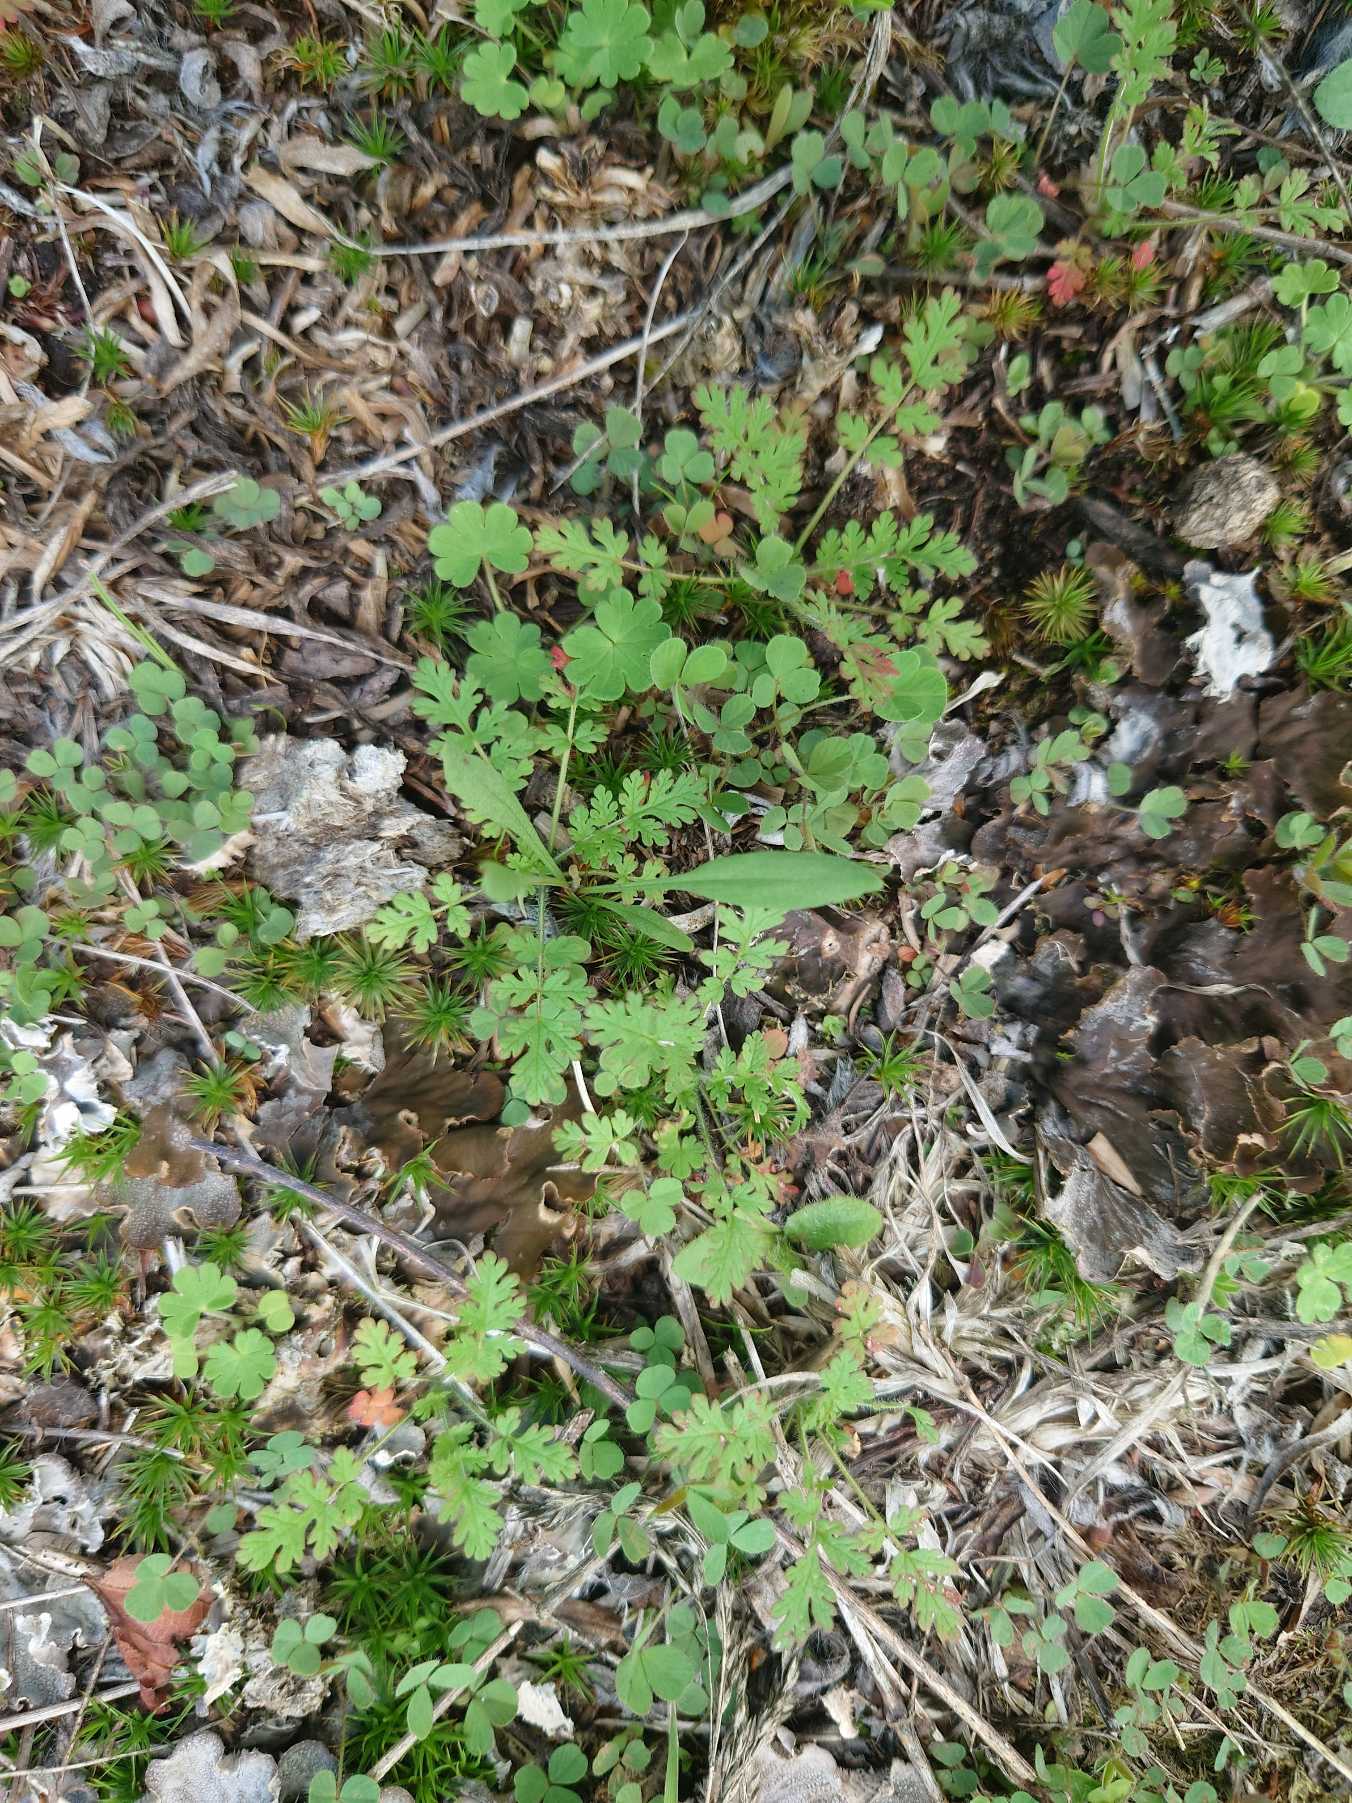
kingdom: Plantae
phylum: Tracheophyta
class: Magnoliopsida
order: Geraniales
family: Geraniaceae
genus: Erodium
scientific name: Erodium cicutarium
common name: Hejrenæb
